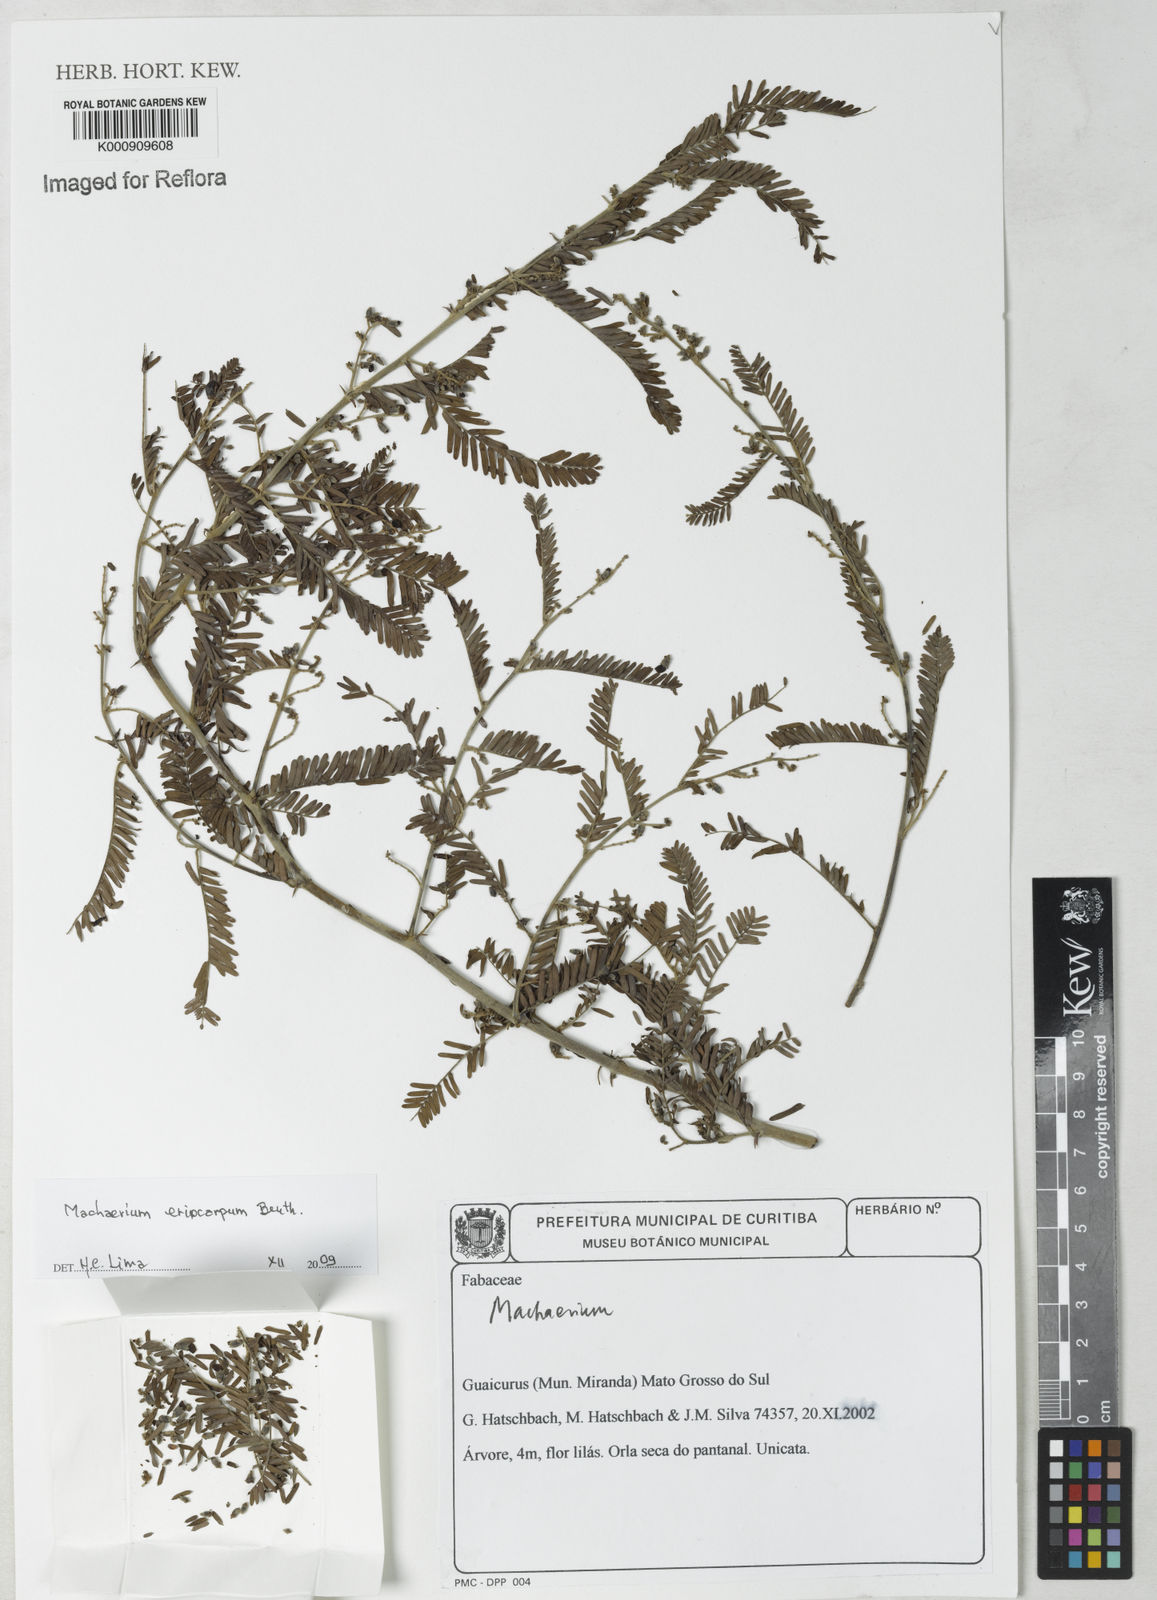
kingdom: Plantae
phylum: Tracheophyta
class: Magnoliopsida
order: Fabales
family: Fabaceae
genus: Machaerium
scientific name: Machaerium eriocarpum
